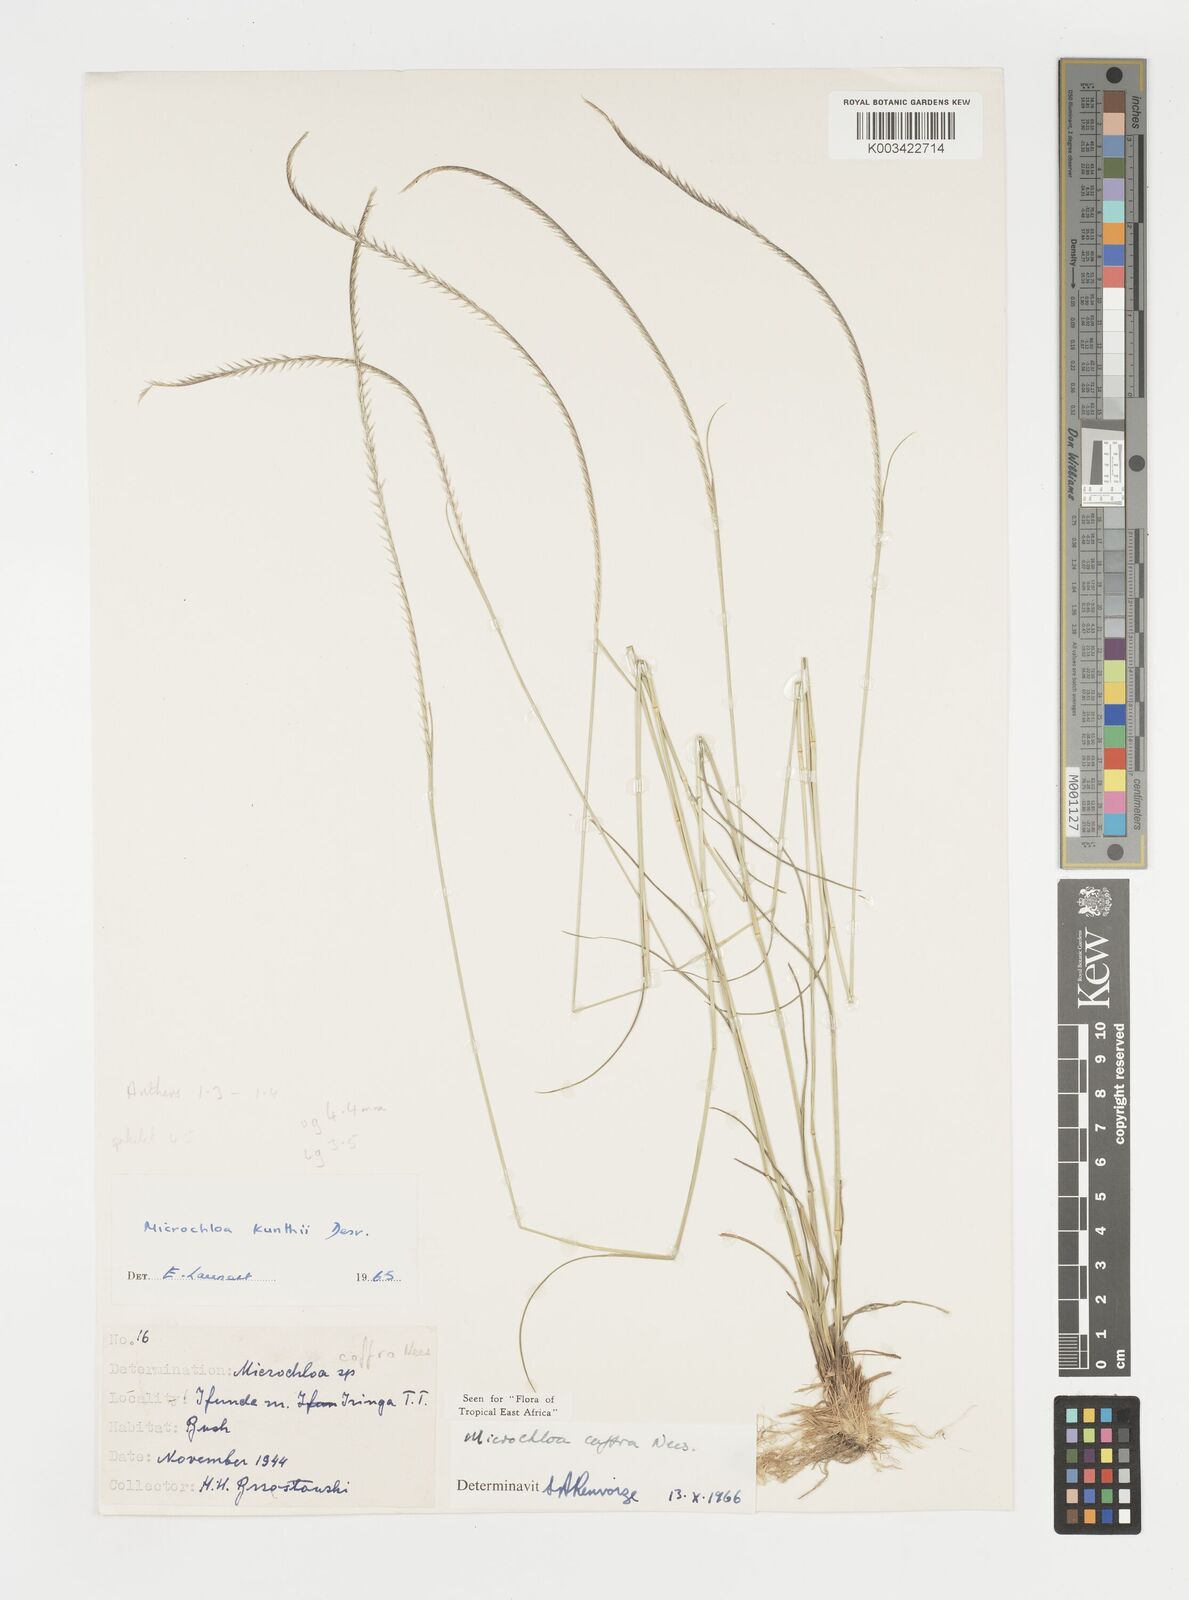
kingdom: Plantae
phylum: Tracheophyta
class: Liliopsida
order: Poales
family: Poaceae
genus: Microchloa
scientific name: Microchloa caffra
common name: Pincushion grass
